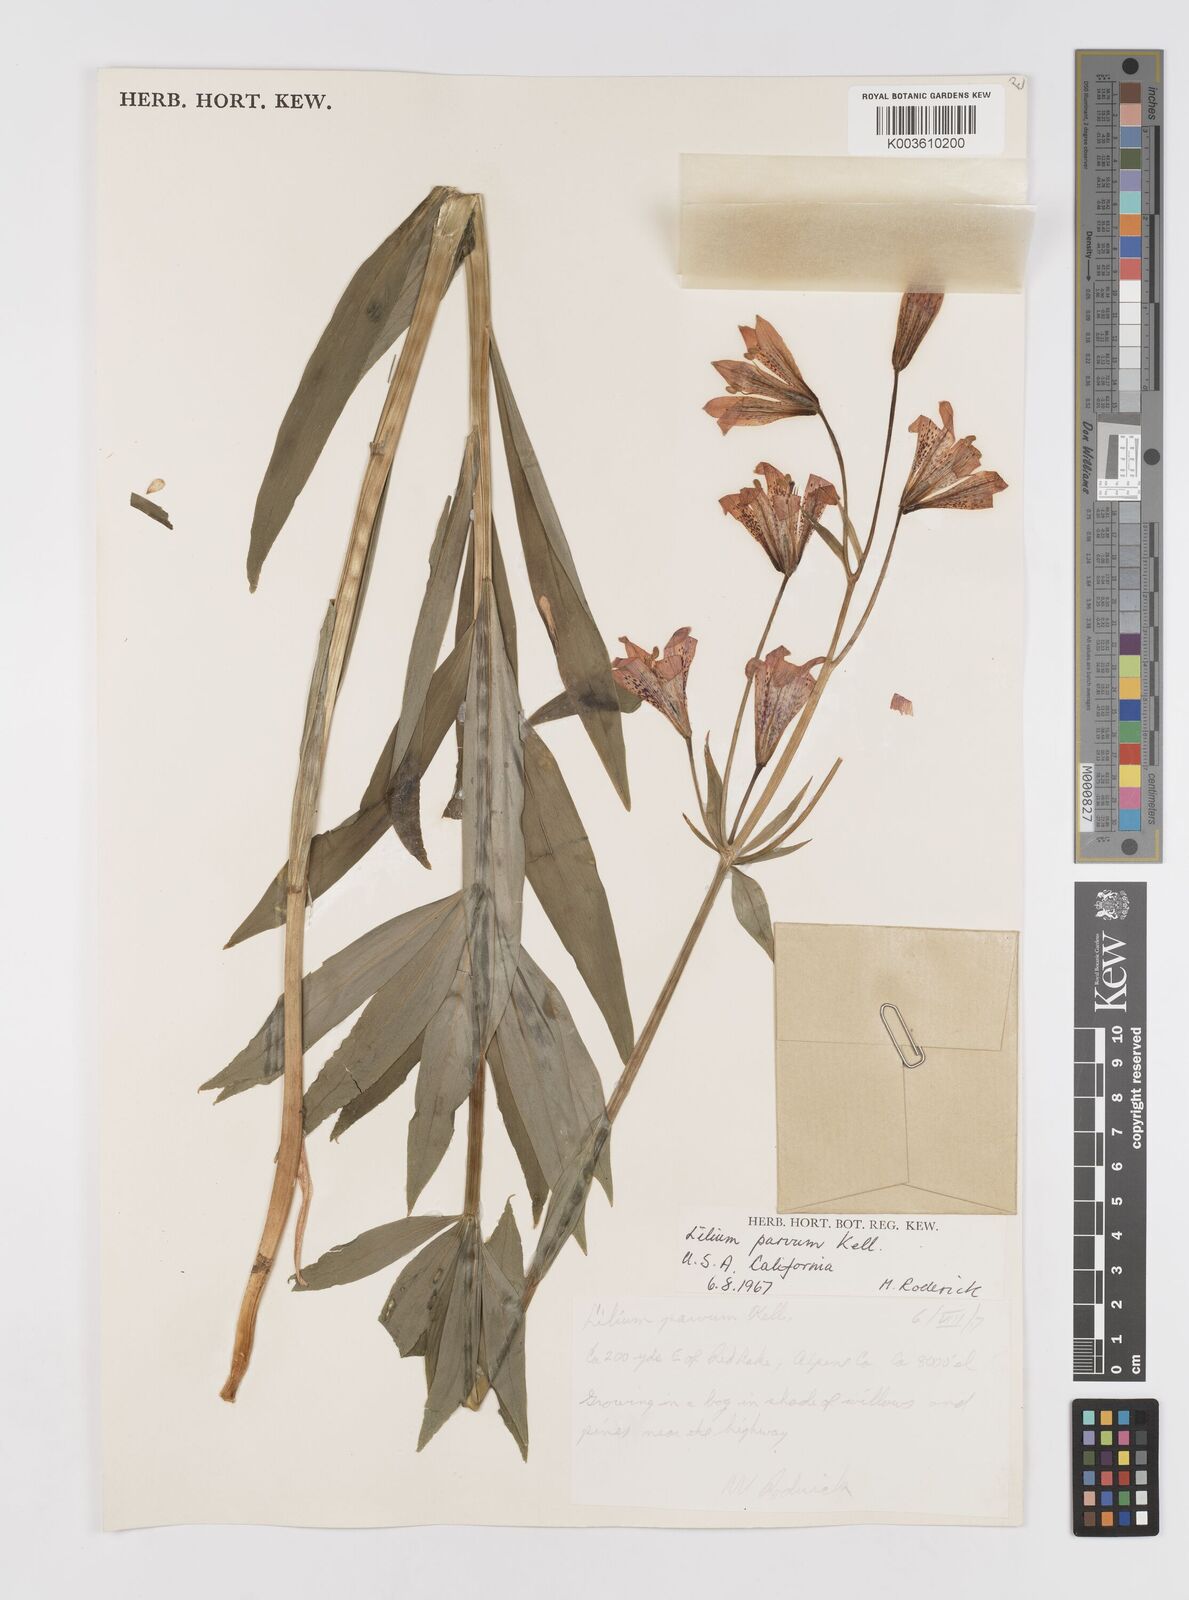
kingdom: Plantae
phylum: Tracheophyta
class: Liliopsida
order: Liliales
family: Liliaceae
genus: Lilium
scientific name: Lilium parvum
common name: Alpine lily
